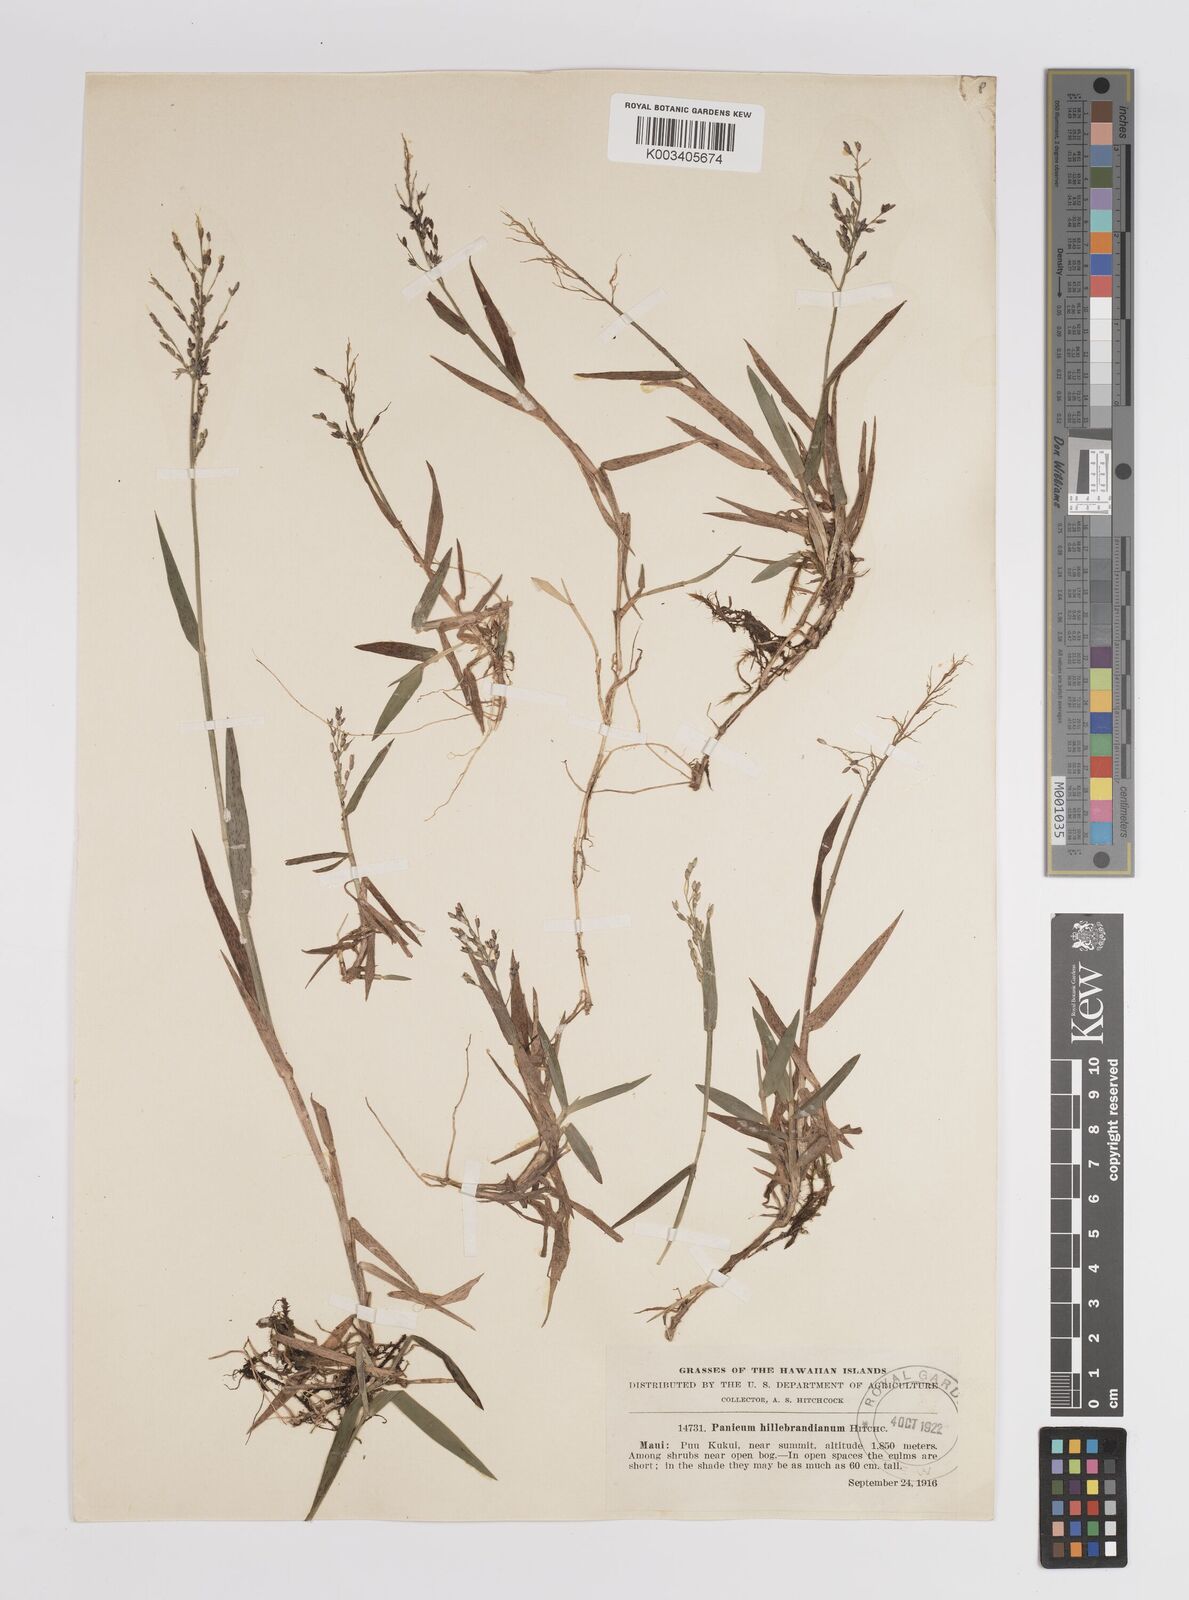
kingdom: Plantae
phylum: Tracheophyta
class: Liliopsida
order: Poales
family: Poaceae
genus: Dichanthelium
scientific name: Dichanthelium hillebrandianum
